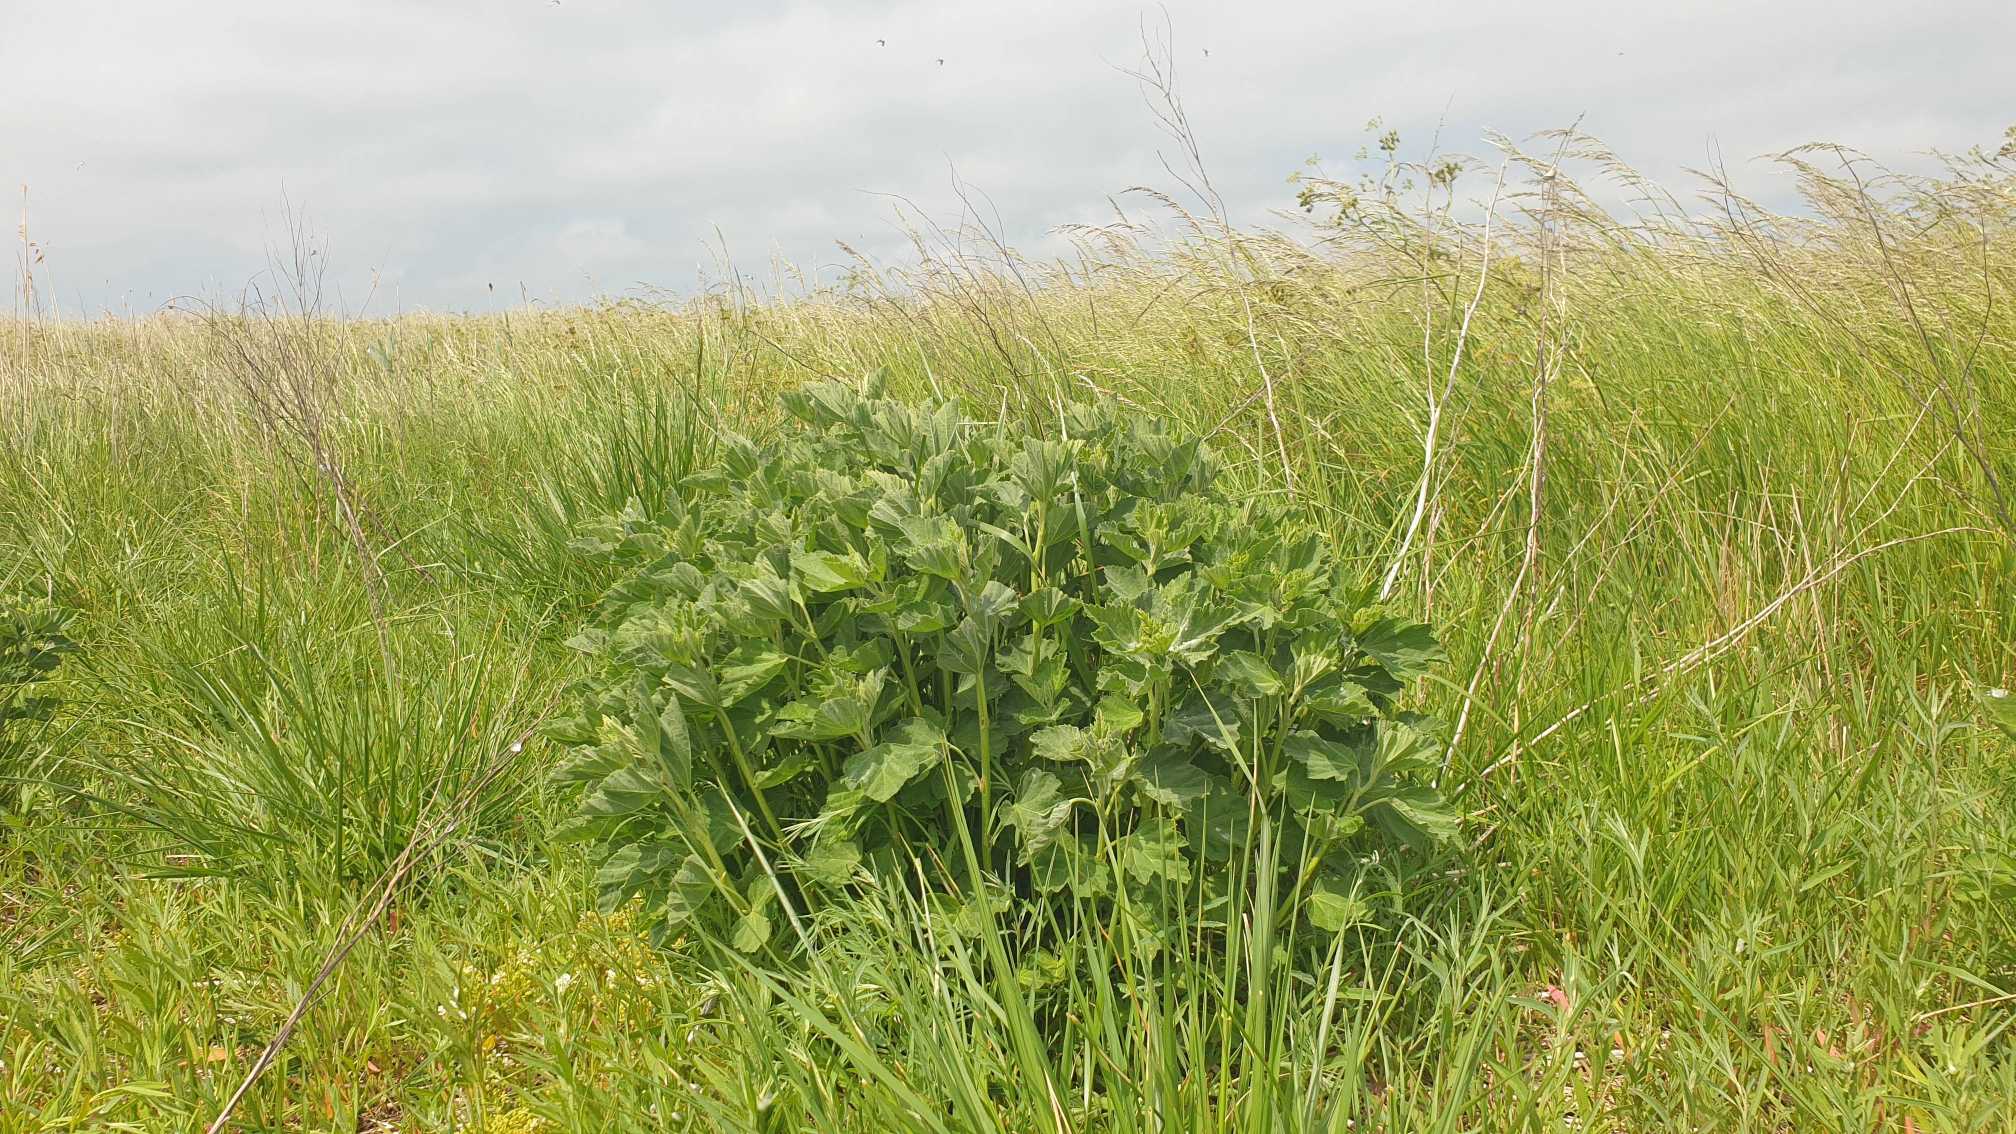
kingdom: Plantae
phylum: Tracheophyta
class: Magnoliopsida
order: Malvales
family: Malvaceae
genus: Althaea
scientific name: Althaea officinalis
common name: Lægestokrose
